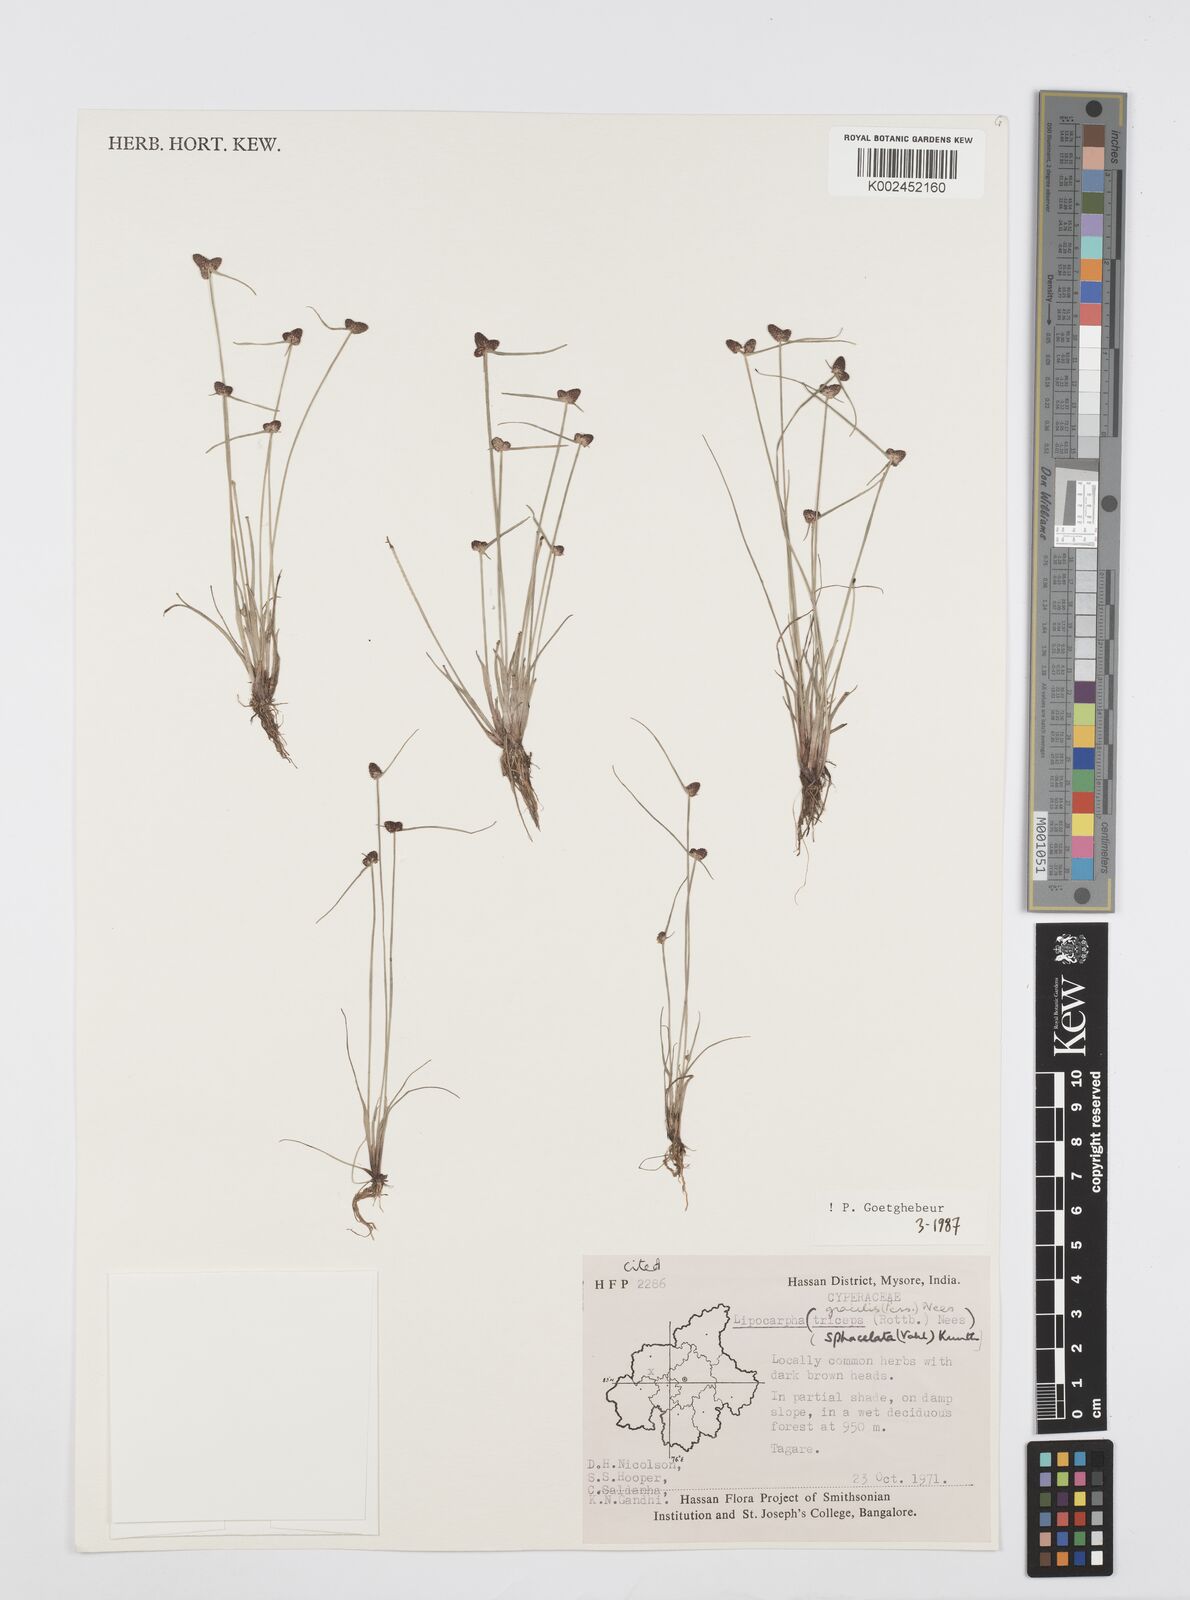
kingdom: Plantae
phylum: Tracheophyta
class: Liliopsida
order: Poales
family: Cyperaceae
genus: Cyperus
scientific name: Cyperus sphacelatus
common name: Roadside flatsedge
